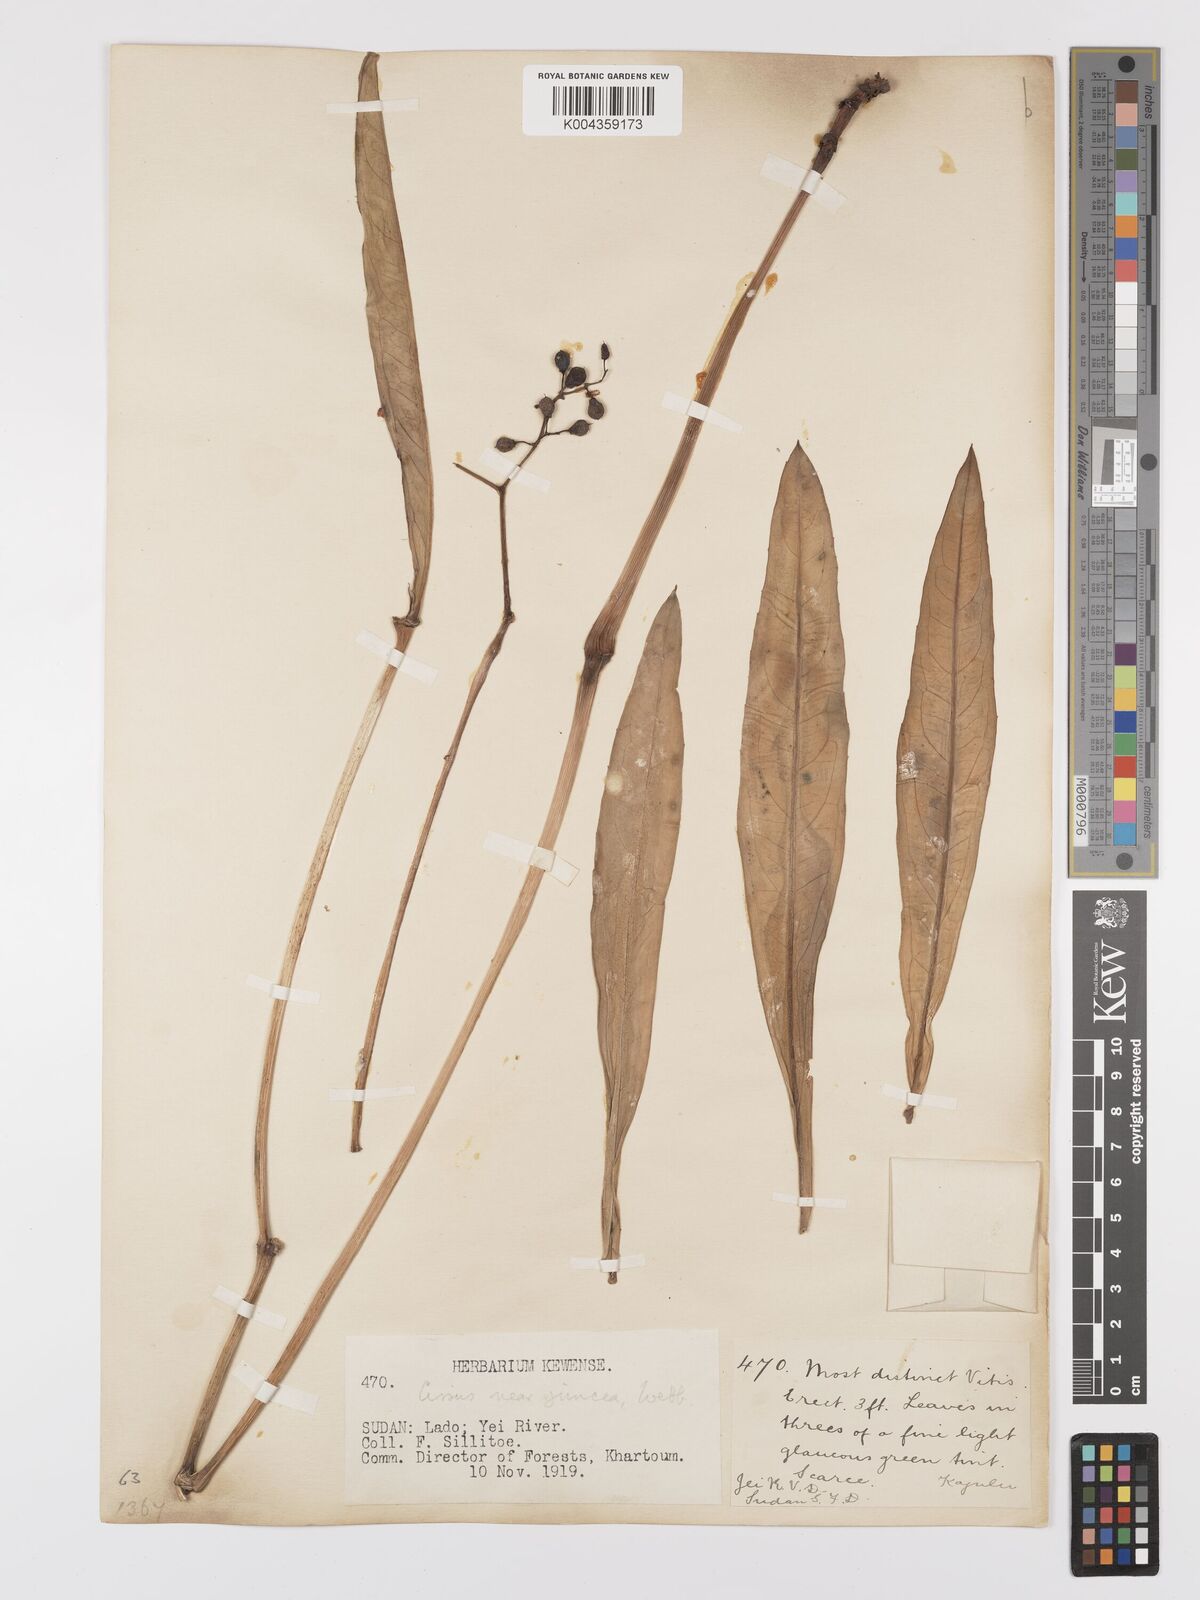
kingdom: Plantae
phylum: Tracheophyta
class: Magnoliopsida
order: Vitales
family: Vitaceae
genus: Cyphostemma
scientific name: Cyphostemma junceum
